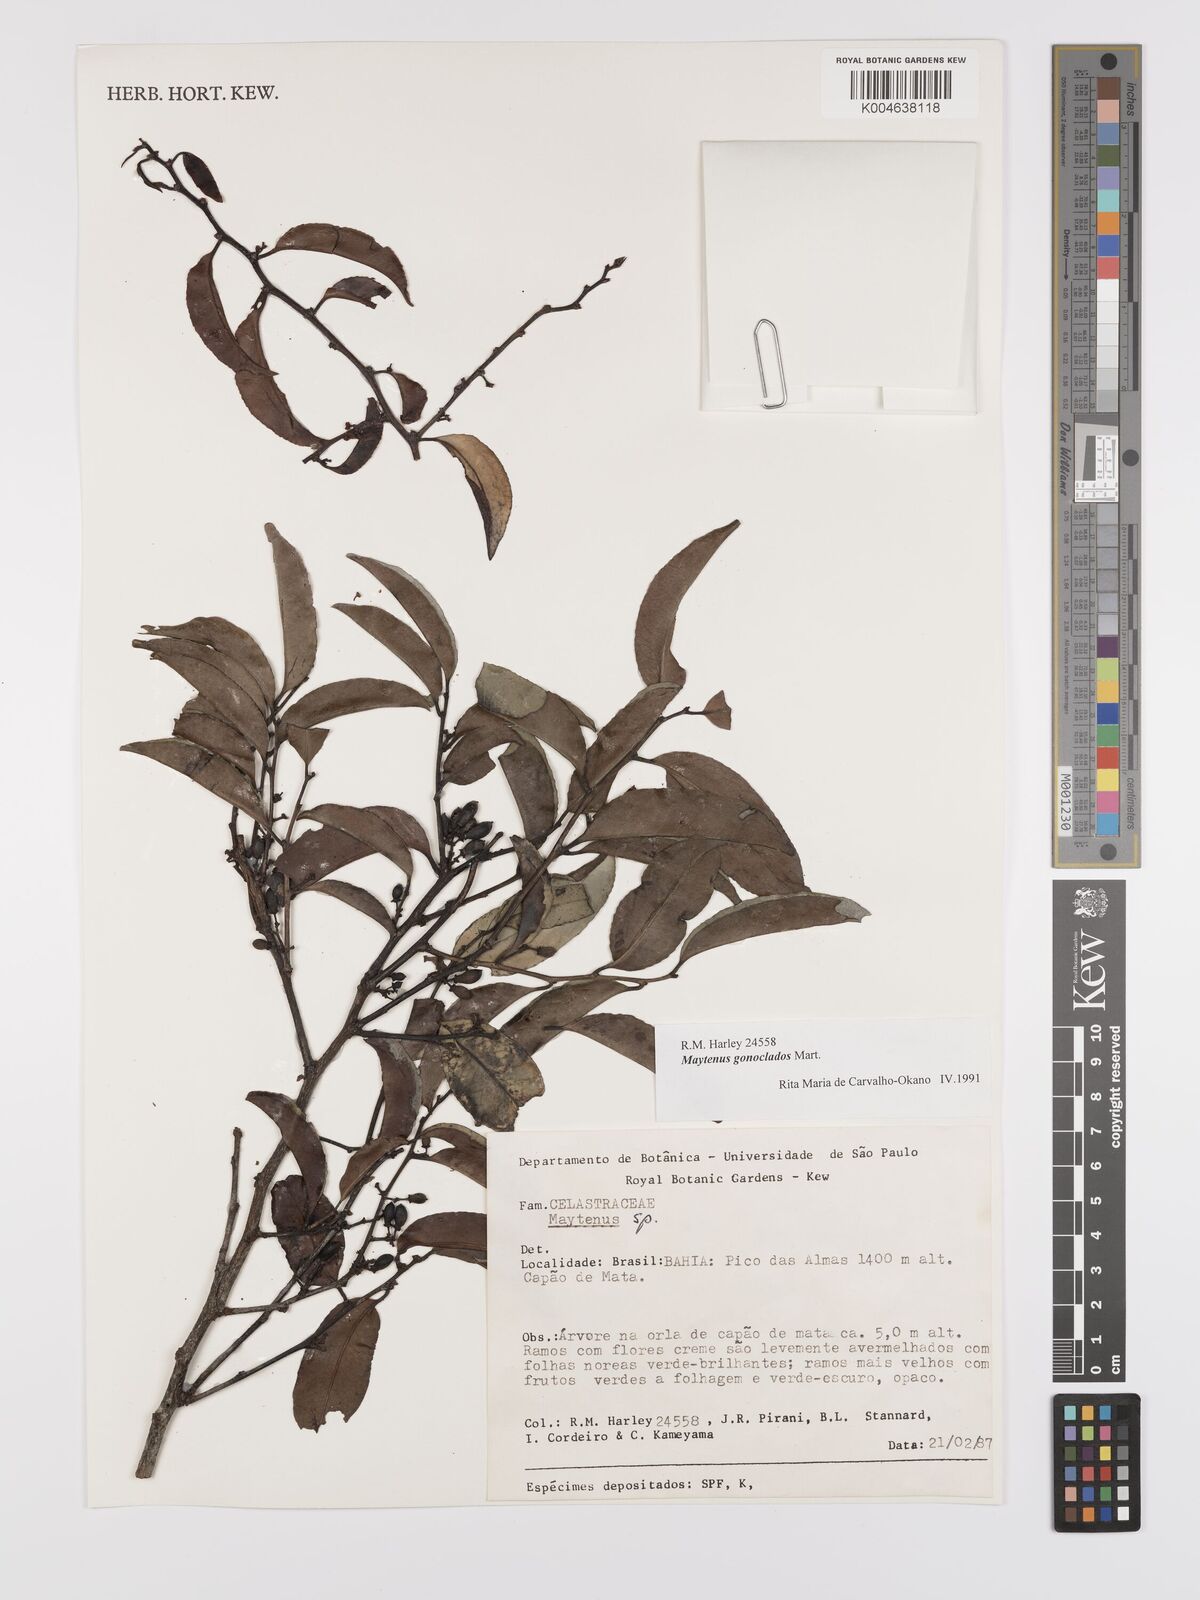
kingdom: Plantae
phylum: Tracheophyta
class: Magnoliopsida
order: Celastrales
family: Celastraceae
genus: Monteverdia
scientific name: Monteverdia gonoclada
